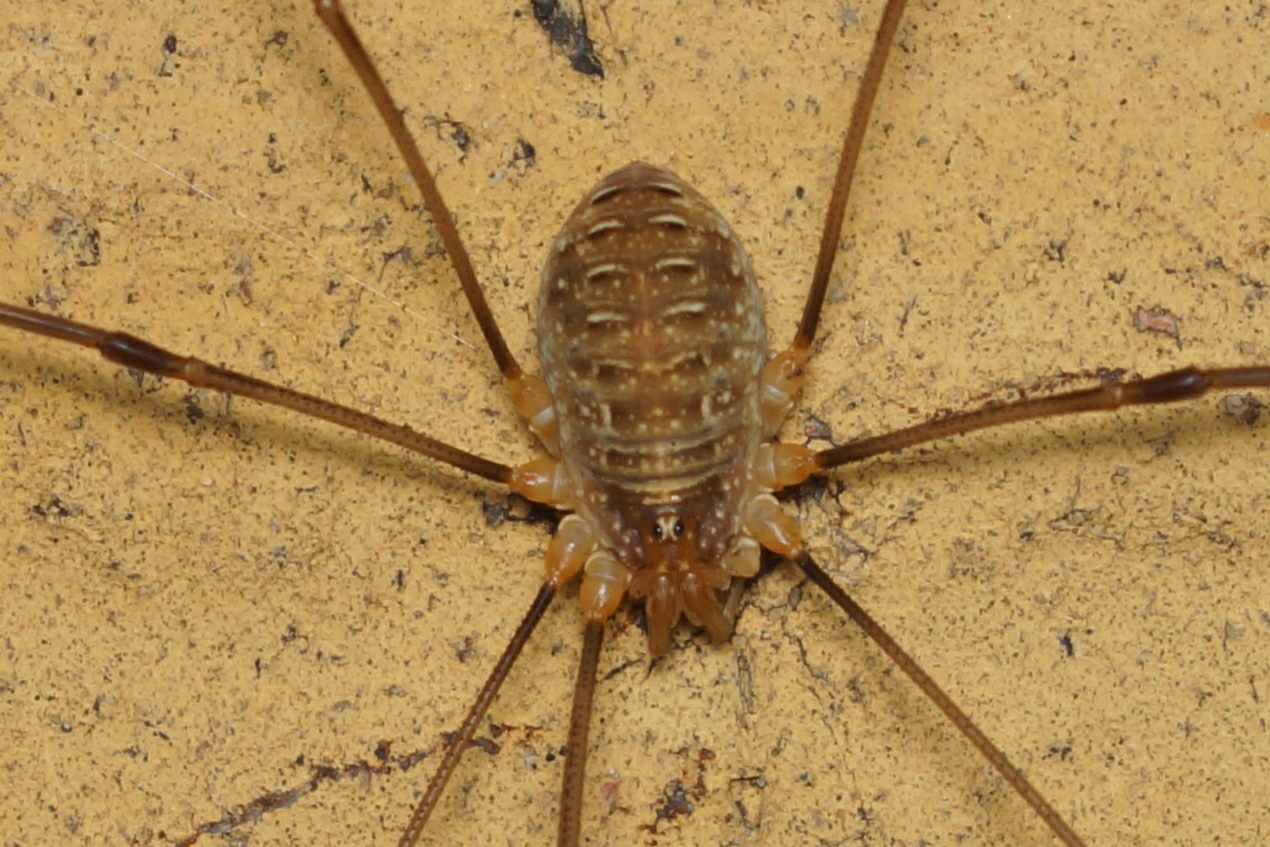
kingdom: Animalia
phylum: Arthropoda
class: Arachnida
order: Opiliones
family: Phalangiidae
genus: Opilio
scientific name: Opilio canestrinii
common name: Orange vægmejer
